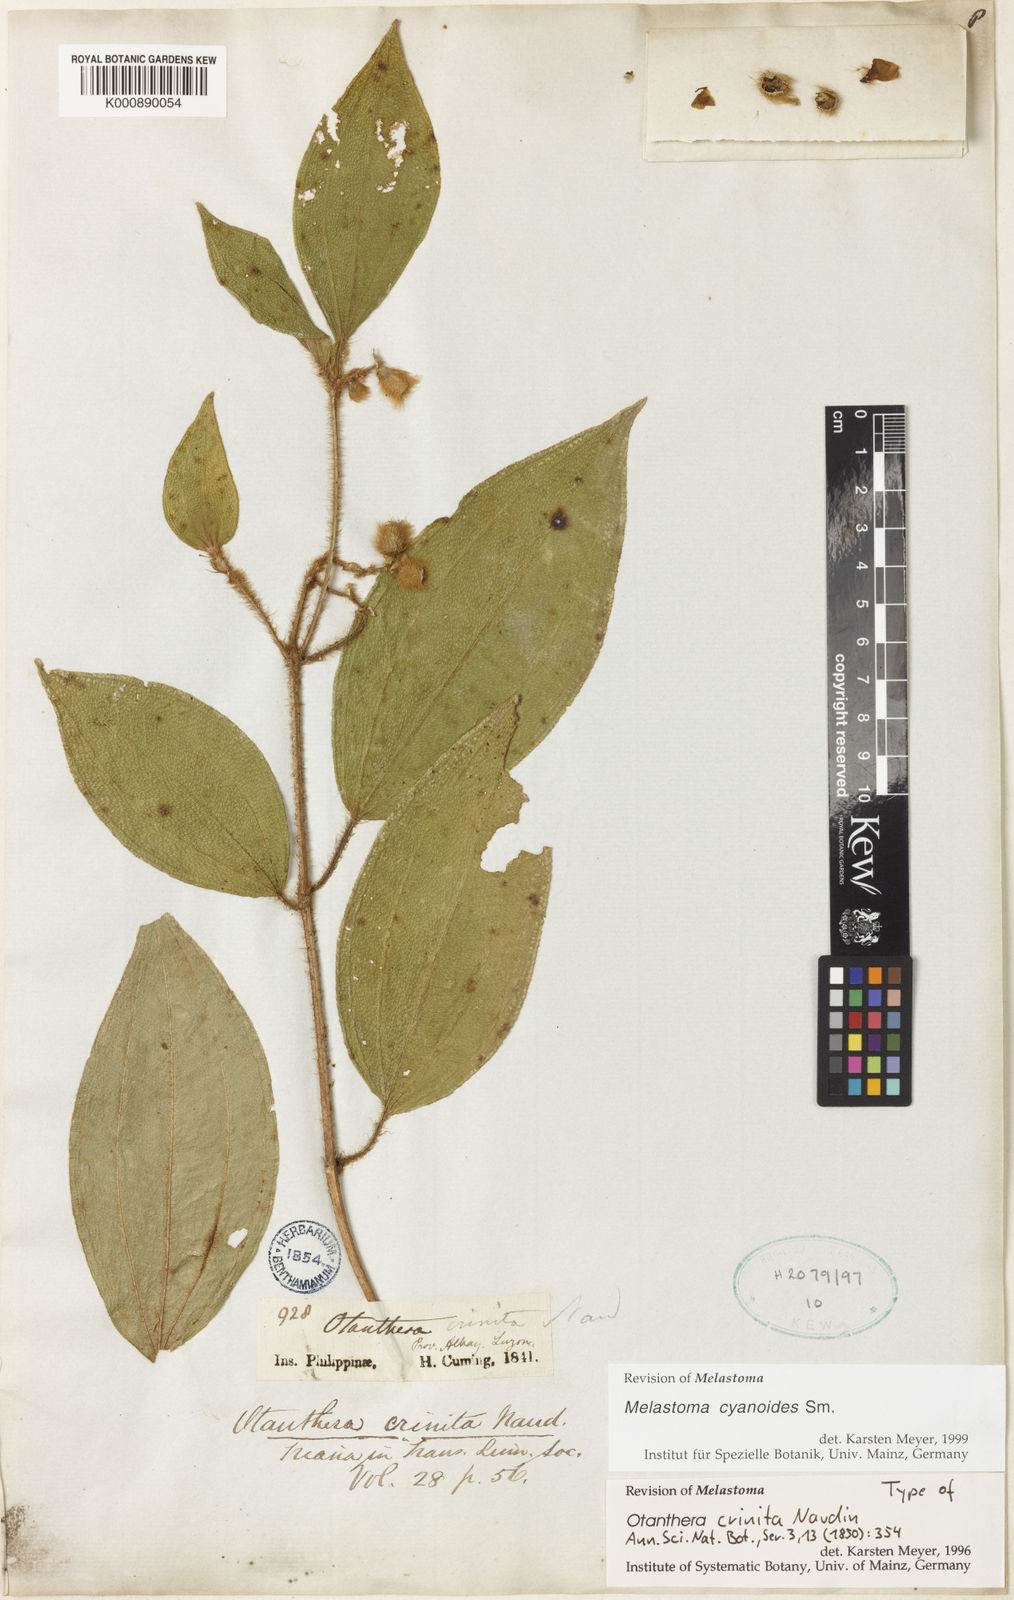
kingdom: Plantae
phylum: Tracheophyta
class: Magnoliopsida
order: Myrtales
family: Melastomataceae
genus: Melastoma
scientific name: Melastoma cyanoides
